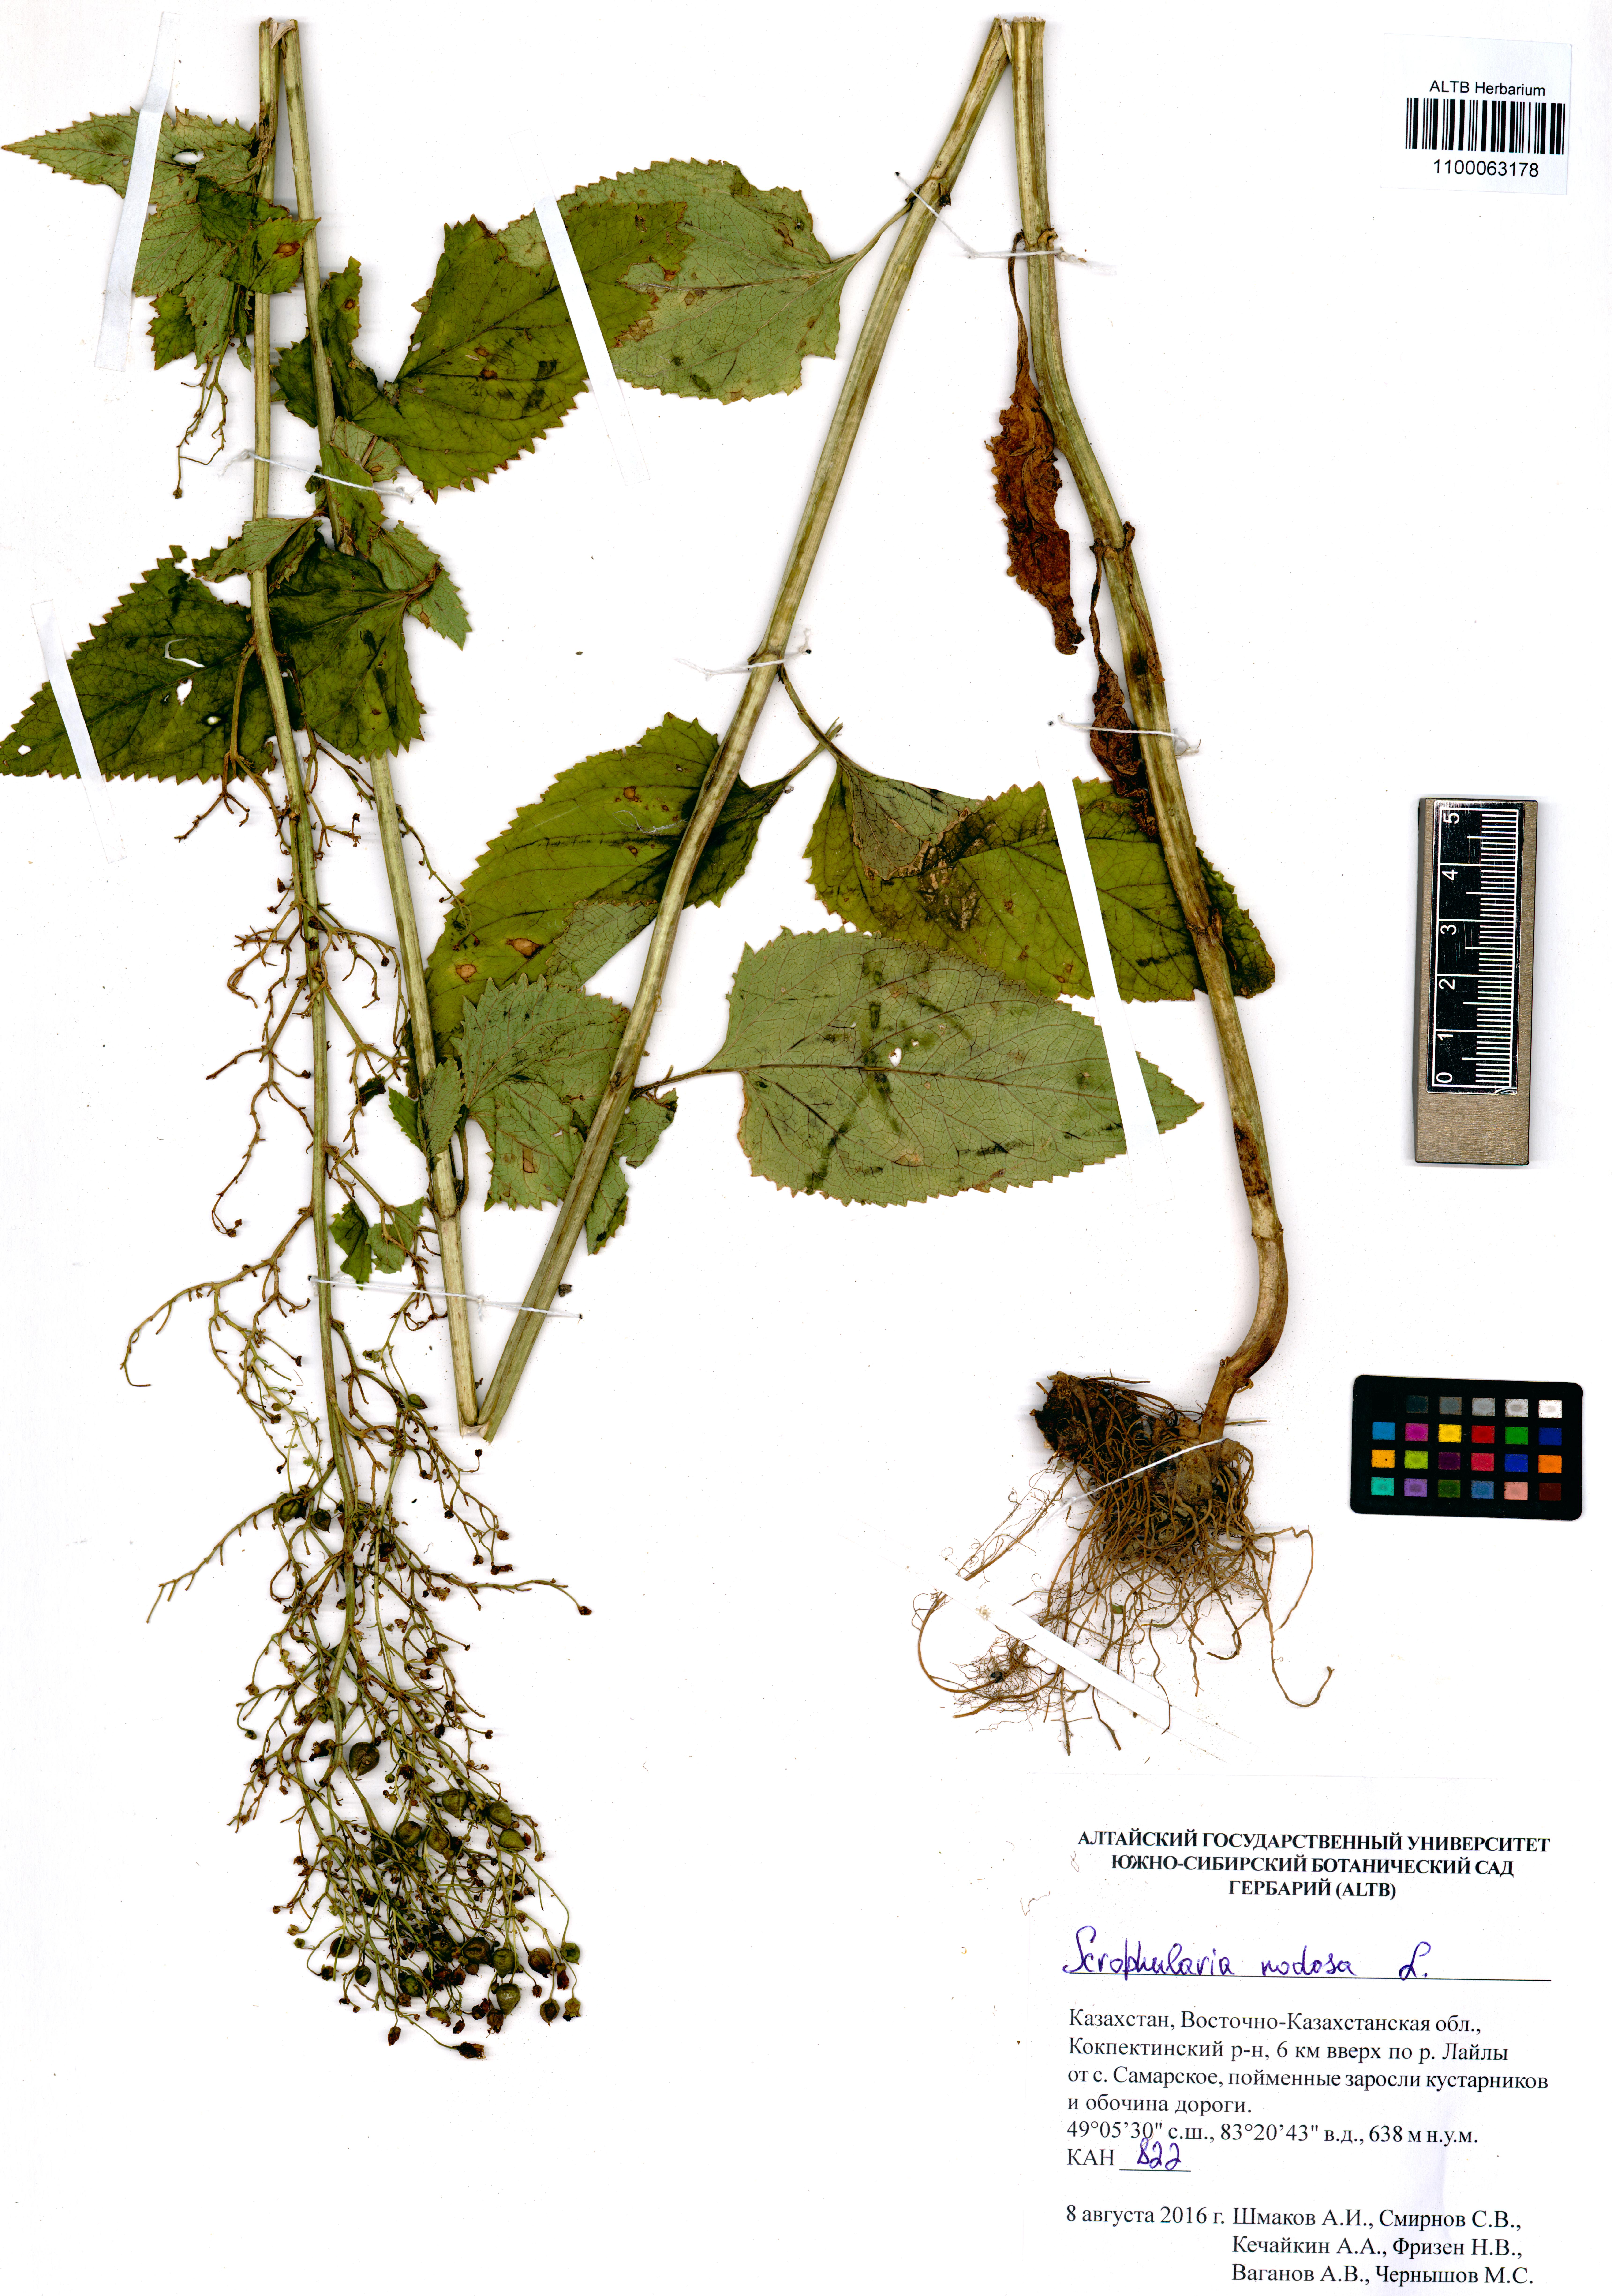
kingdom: Plantae
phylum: Tracheophyta
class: Magnoliopsida
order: Lamiales
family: Scrophulariaceae
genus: Scrophularia
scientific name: Scrophularia nodosa
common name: Common figwort
